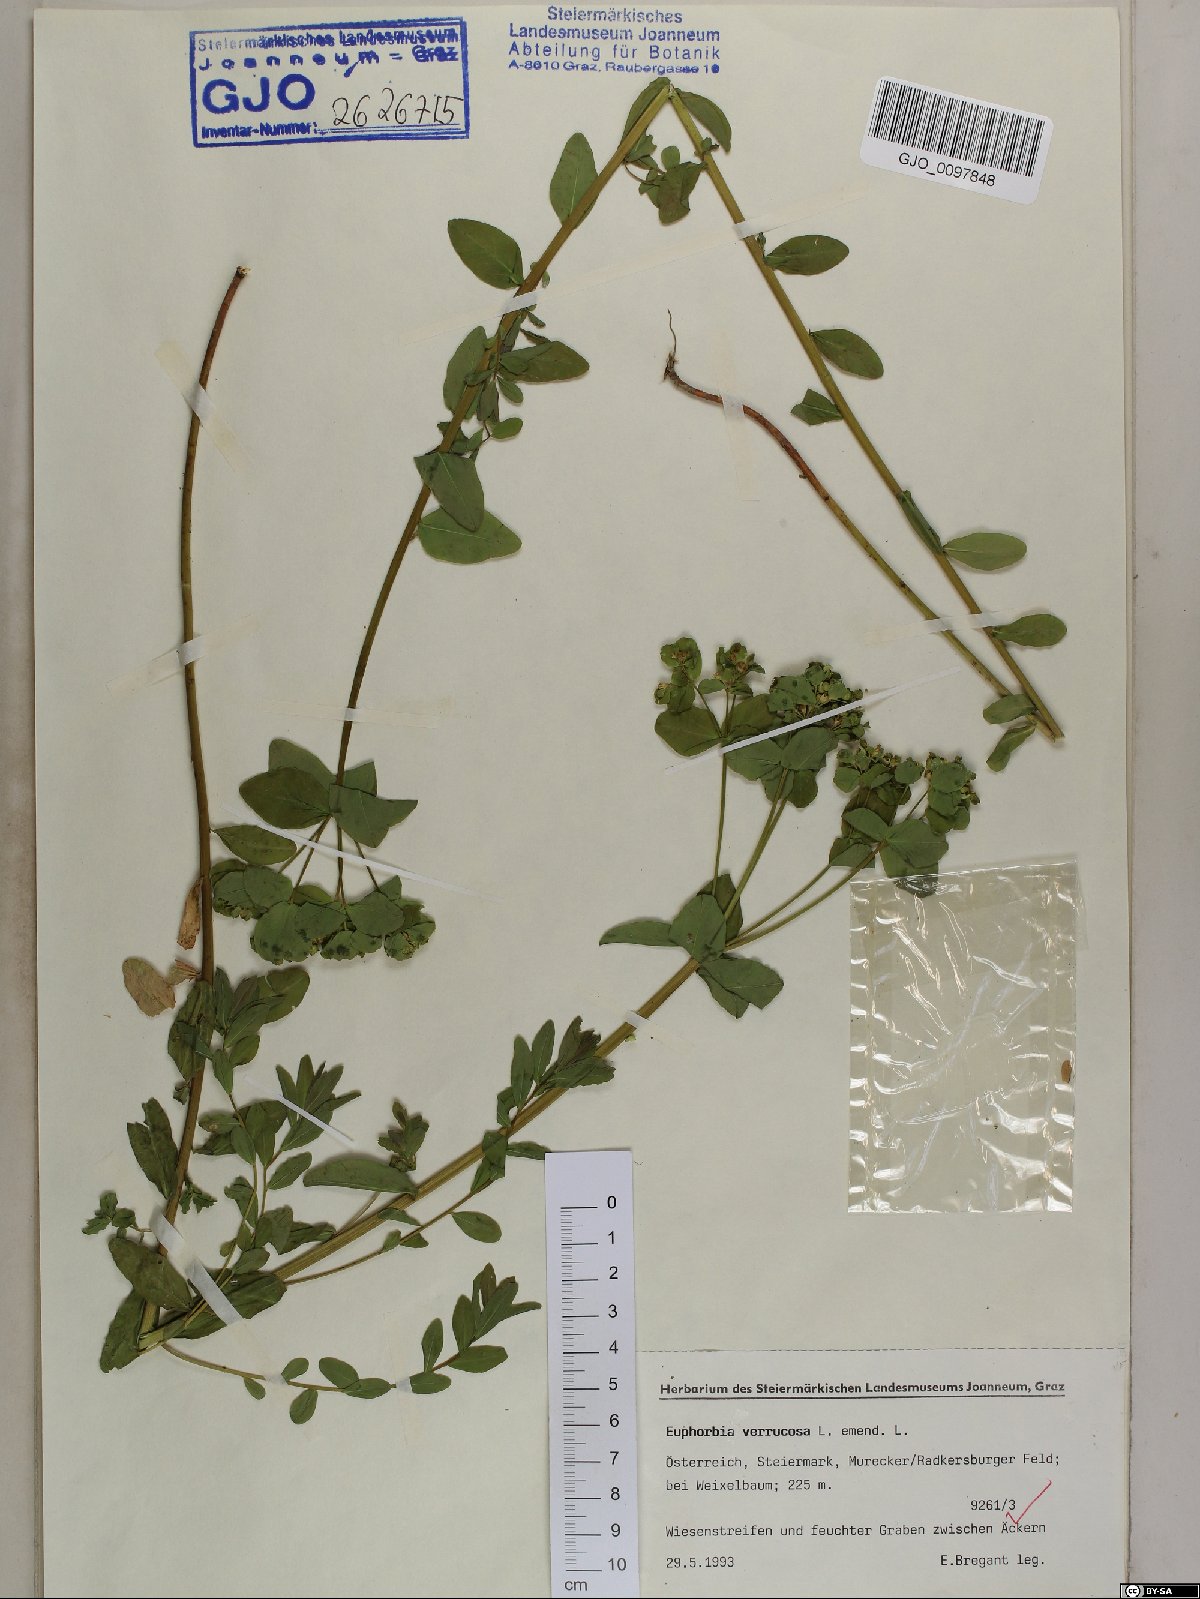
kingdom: Plantae
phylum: Tracheophyta
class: Magnoliopsida
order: Malpighiales
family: Euphorbiaceae
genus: Euphorbia
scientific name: Euphorbia verrucosa
